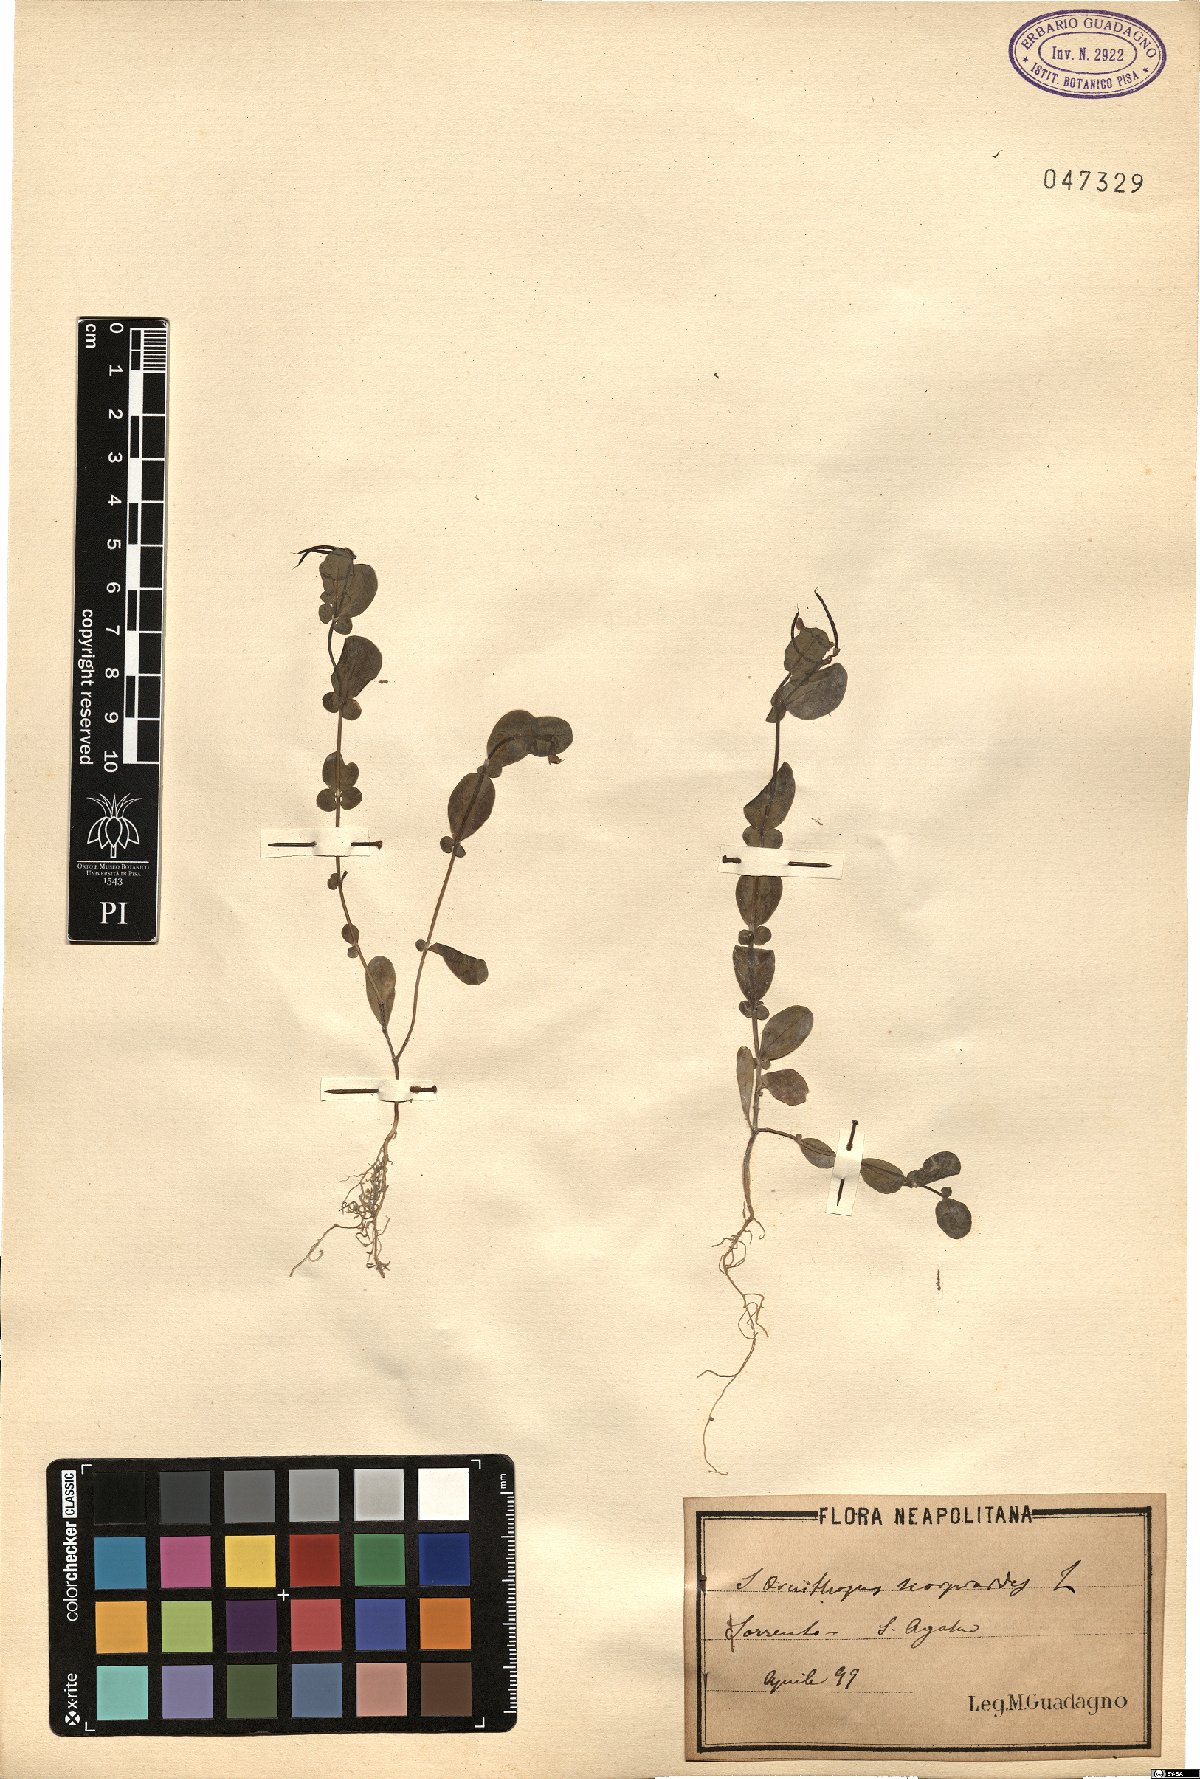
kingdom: Plantae
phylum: Tracheophyta
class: Magnoliopsida
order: Fabales
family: Fabaceae
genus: Coronilla
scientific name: Coronilla scorpioides
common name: Annual scorpion-vetch
